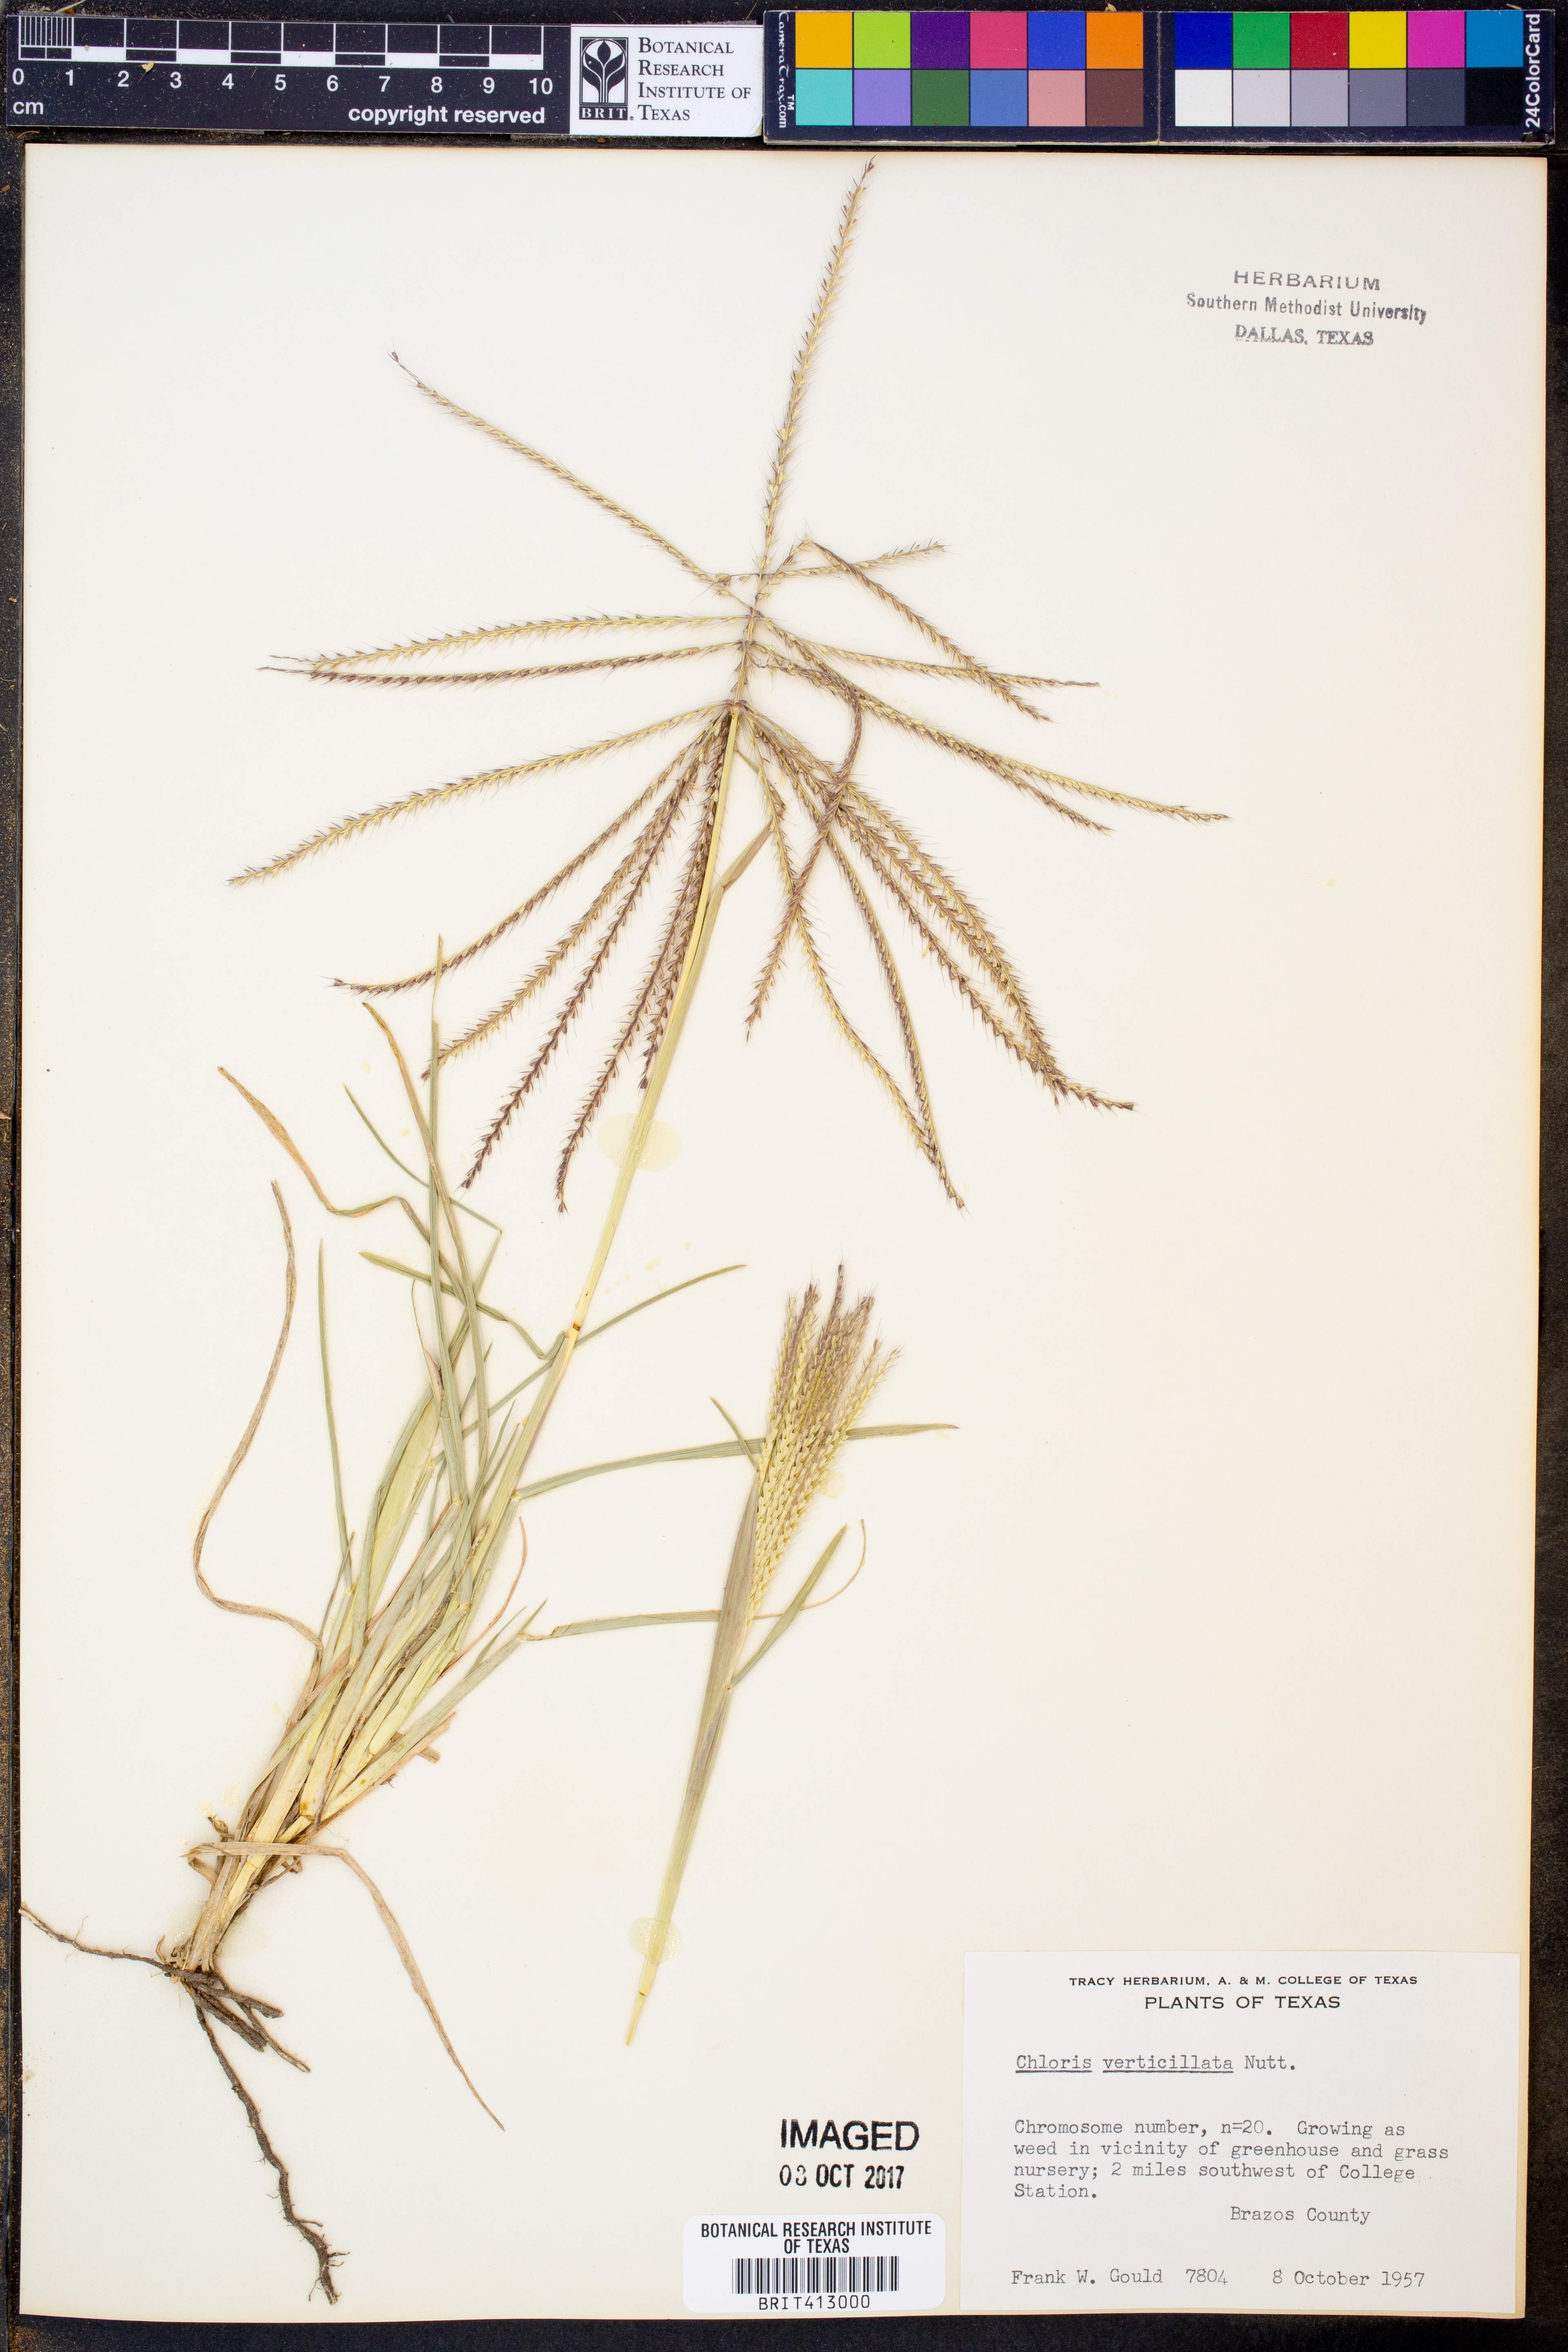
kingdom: Plantae
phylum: Tracheophyta
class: Liliopsida
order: Poales
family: Poaceae
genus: Chloris
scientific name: Chloris verticillata
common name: Tumble windmill grass
